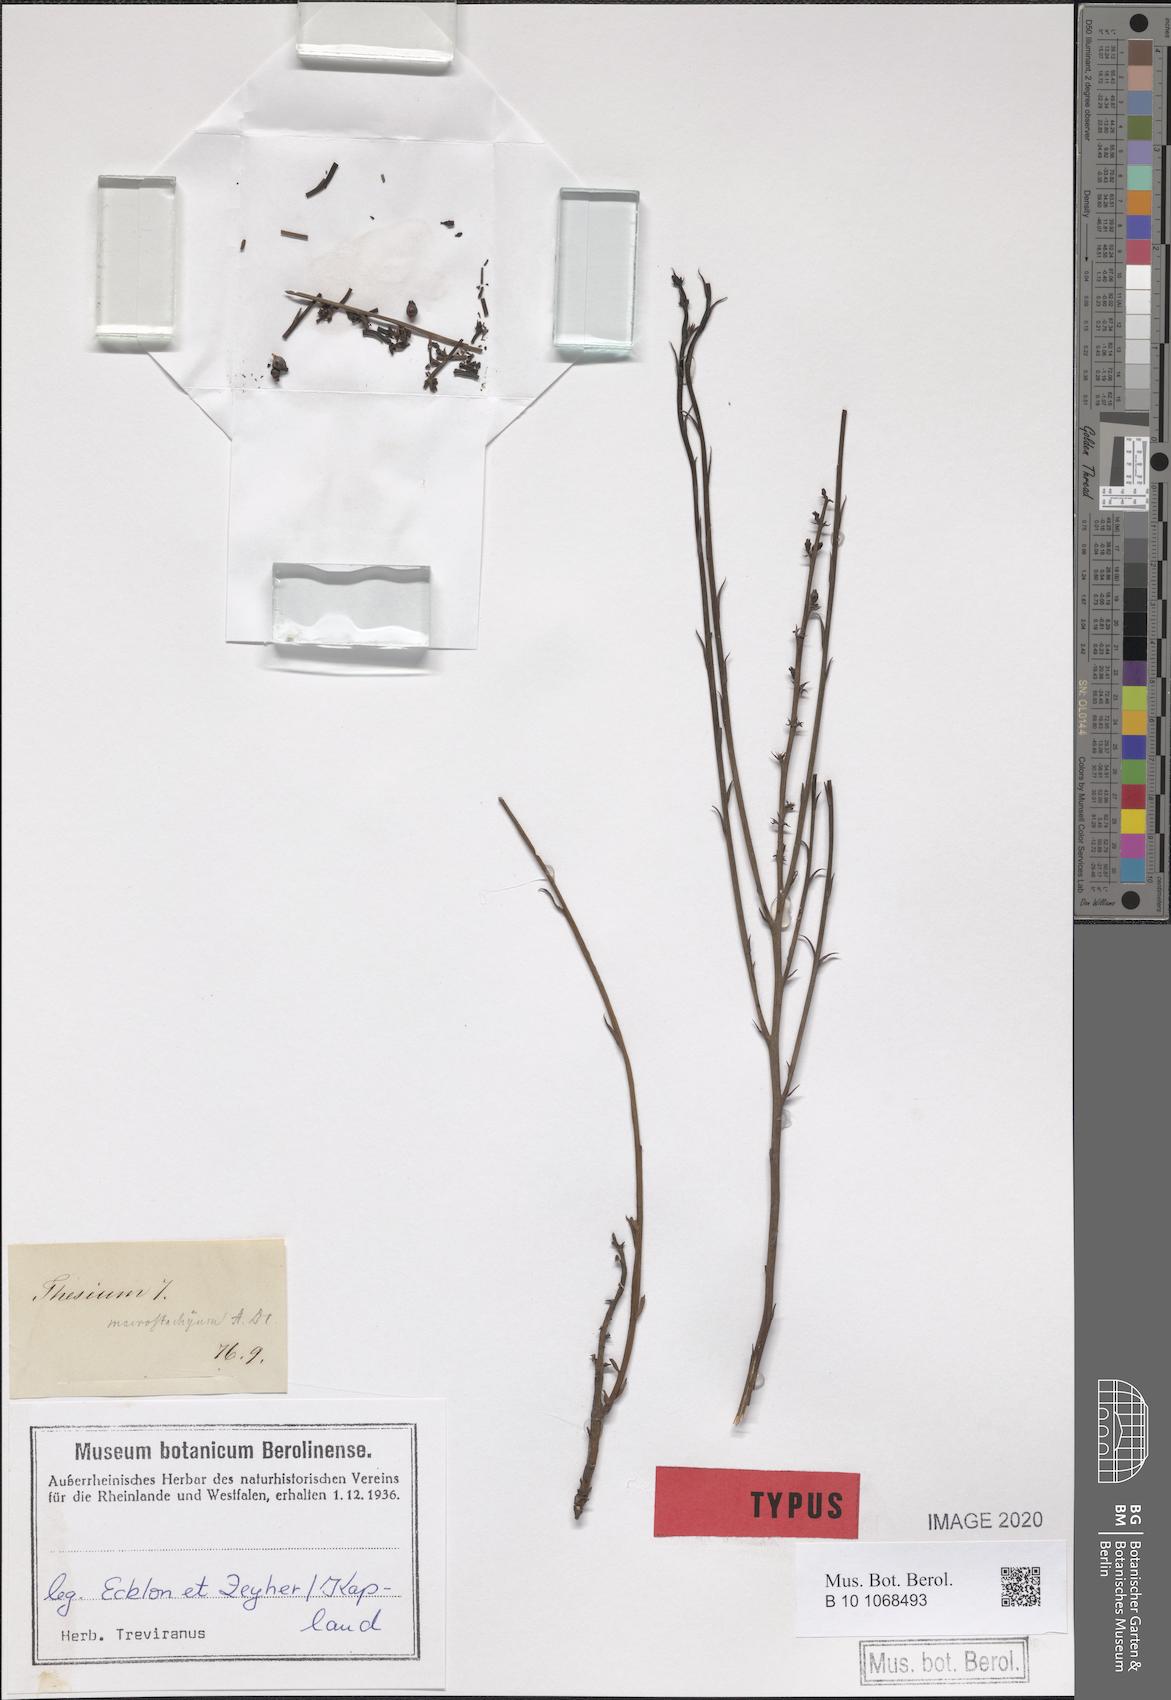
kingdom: Plantae
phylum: Tracheophyta
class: Magnoliopsida
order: Santalales
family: Thesiaceae
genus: Thesium
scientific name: Thesium macrostachyum
